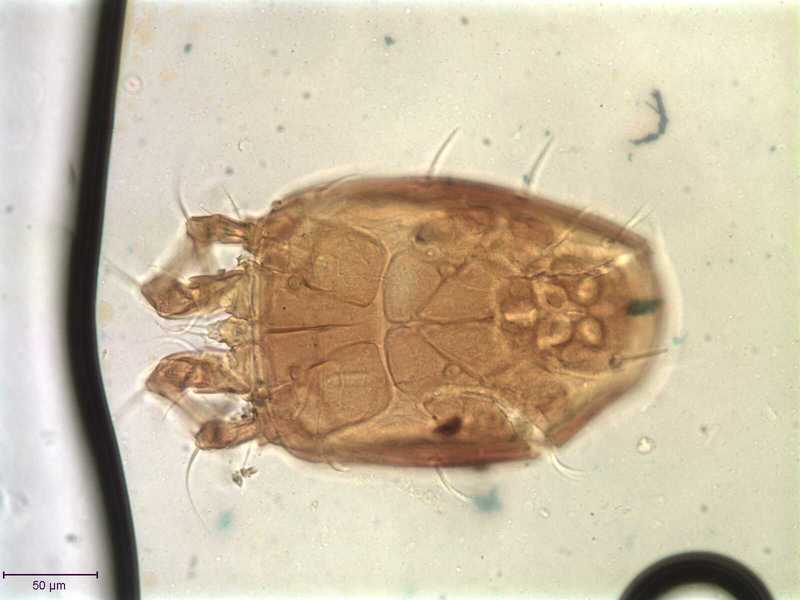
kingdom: Animalia
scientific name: Animalia
